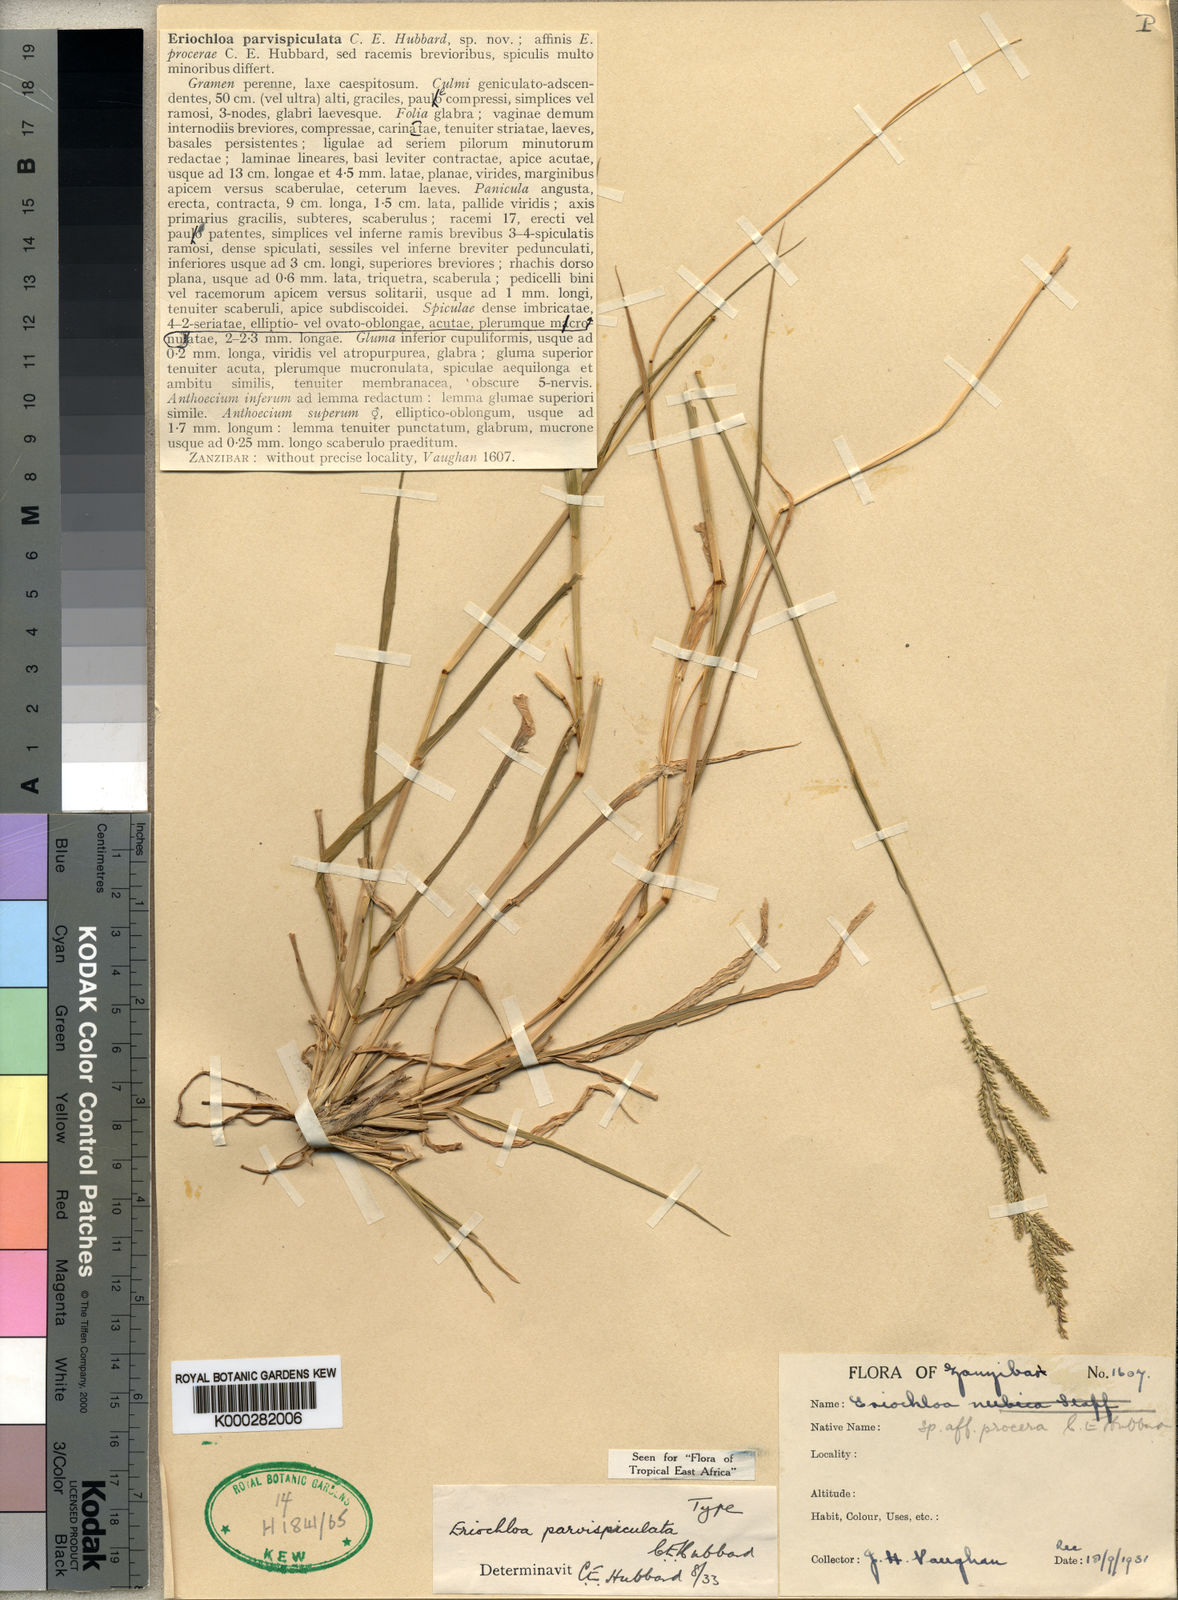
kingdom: Plantae
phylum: Tracheophyta
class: Liliopsida
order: Poales
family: Poaceae
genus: Eriochloa
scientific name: Eriochloa parvispiculata
